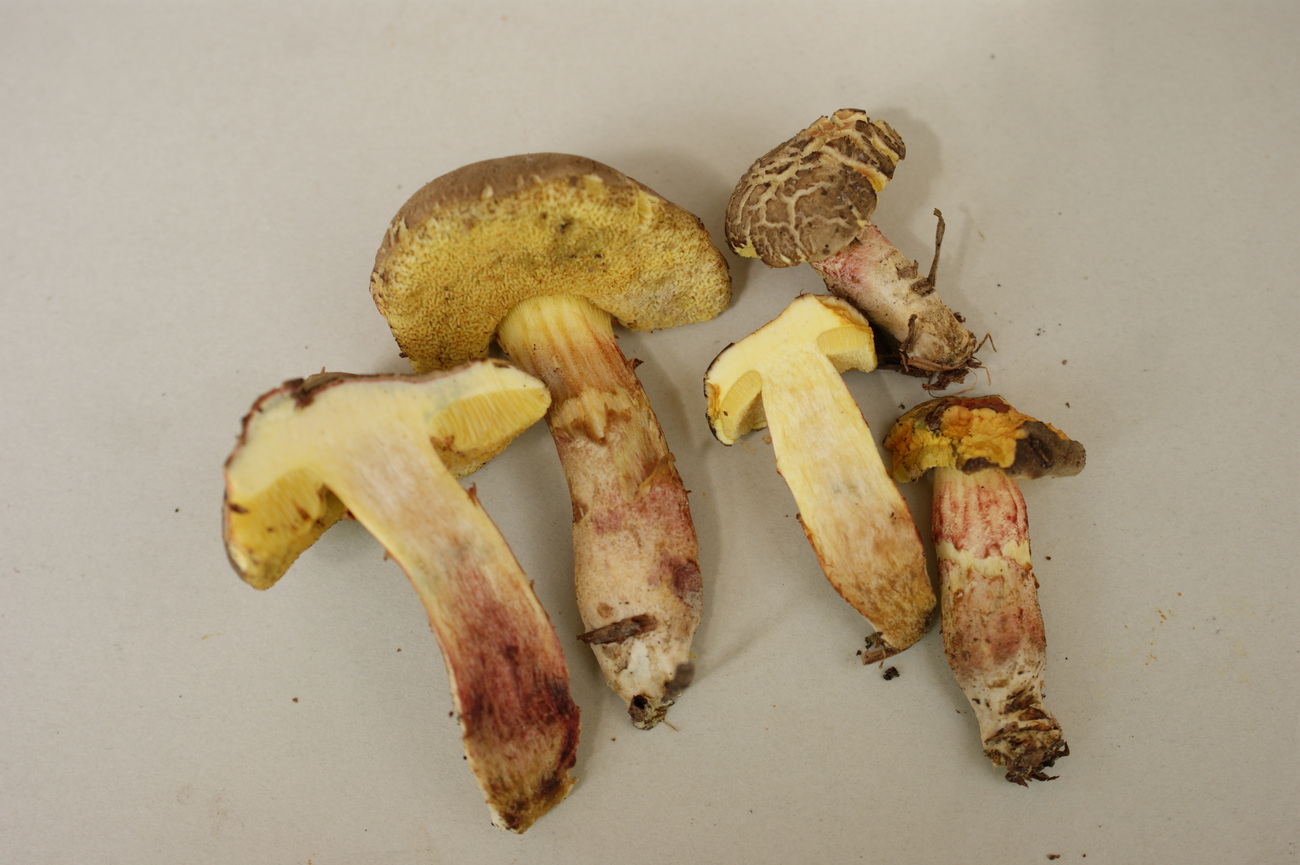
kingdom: Fungi
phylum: Basidiomycota
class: Agaricomycetes
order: Boletales
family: Boletaceae
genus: Xerocomellus
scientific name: Xerocomellus chrysenteron
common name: rødsprukken rørhat
